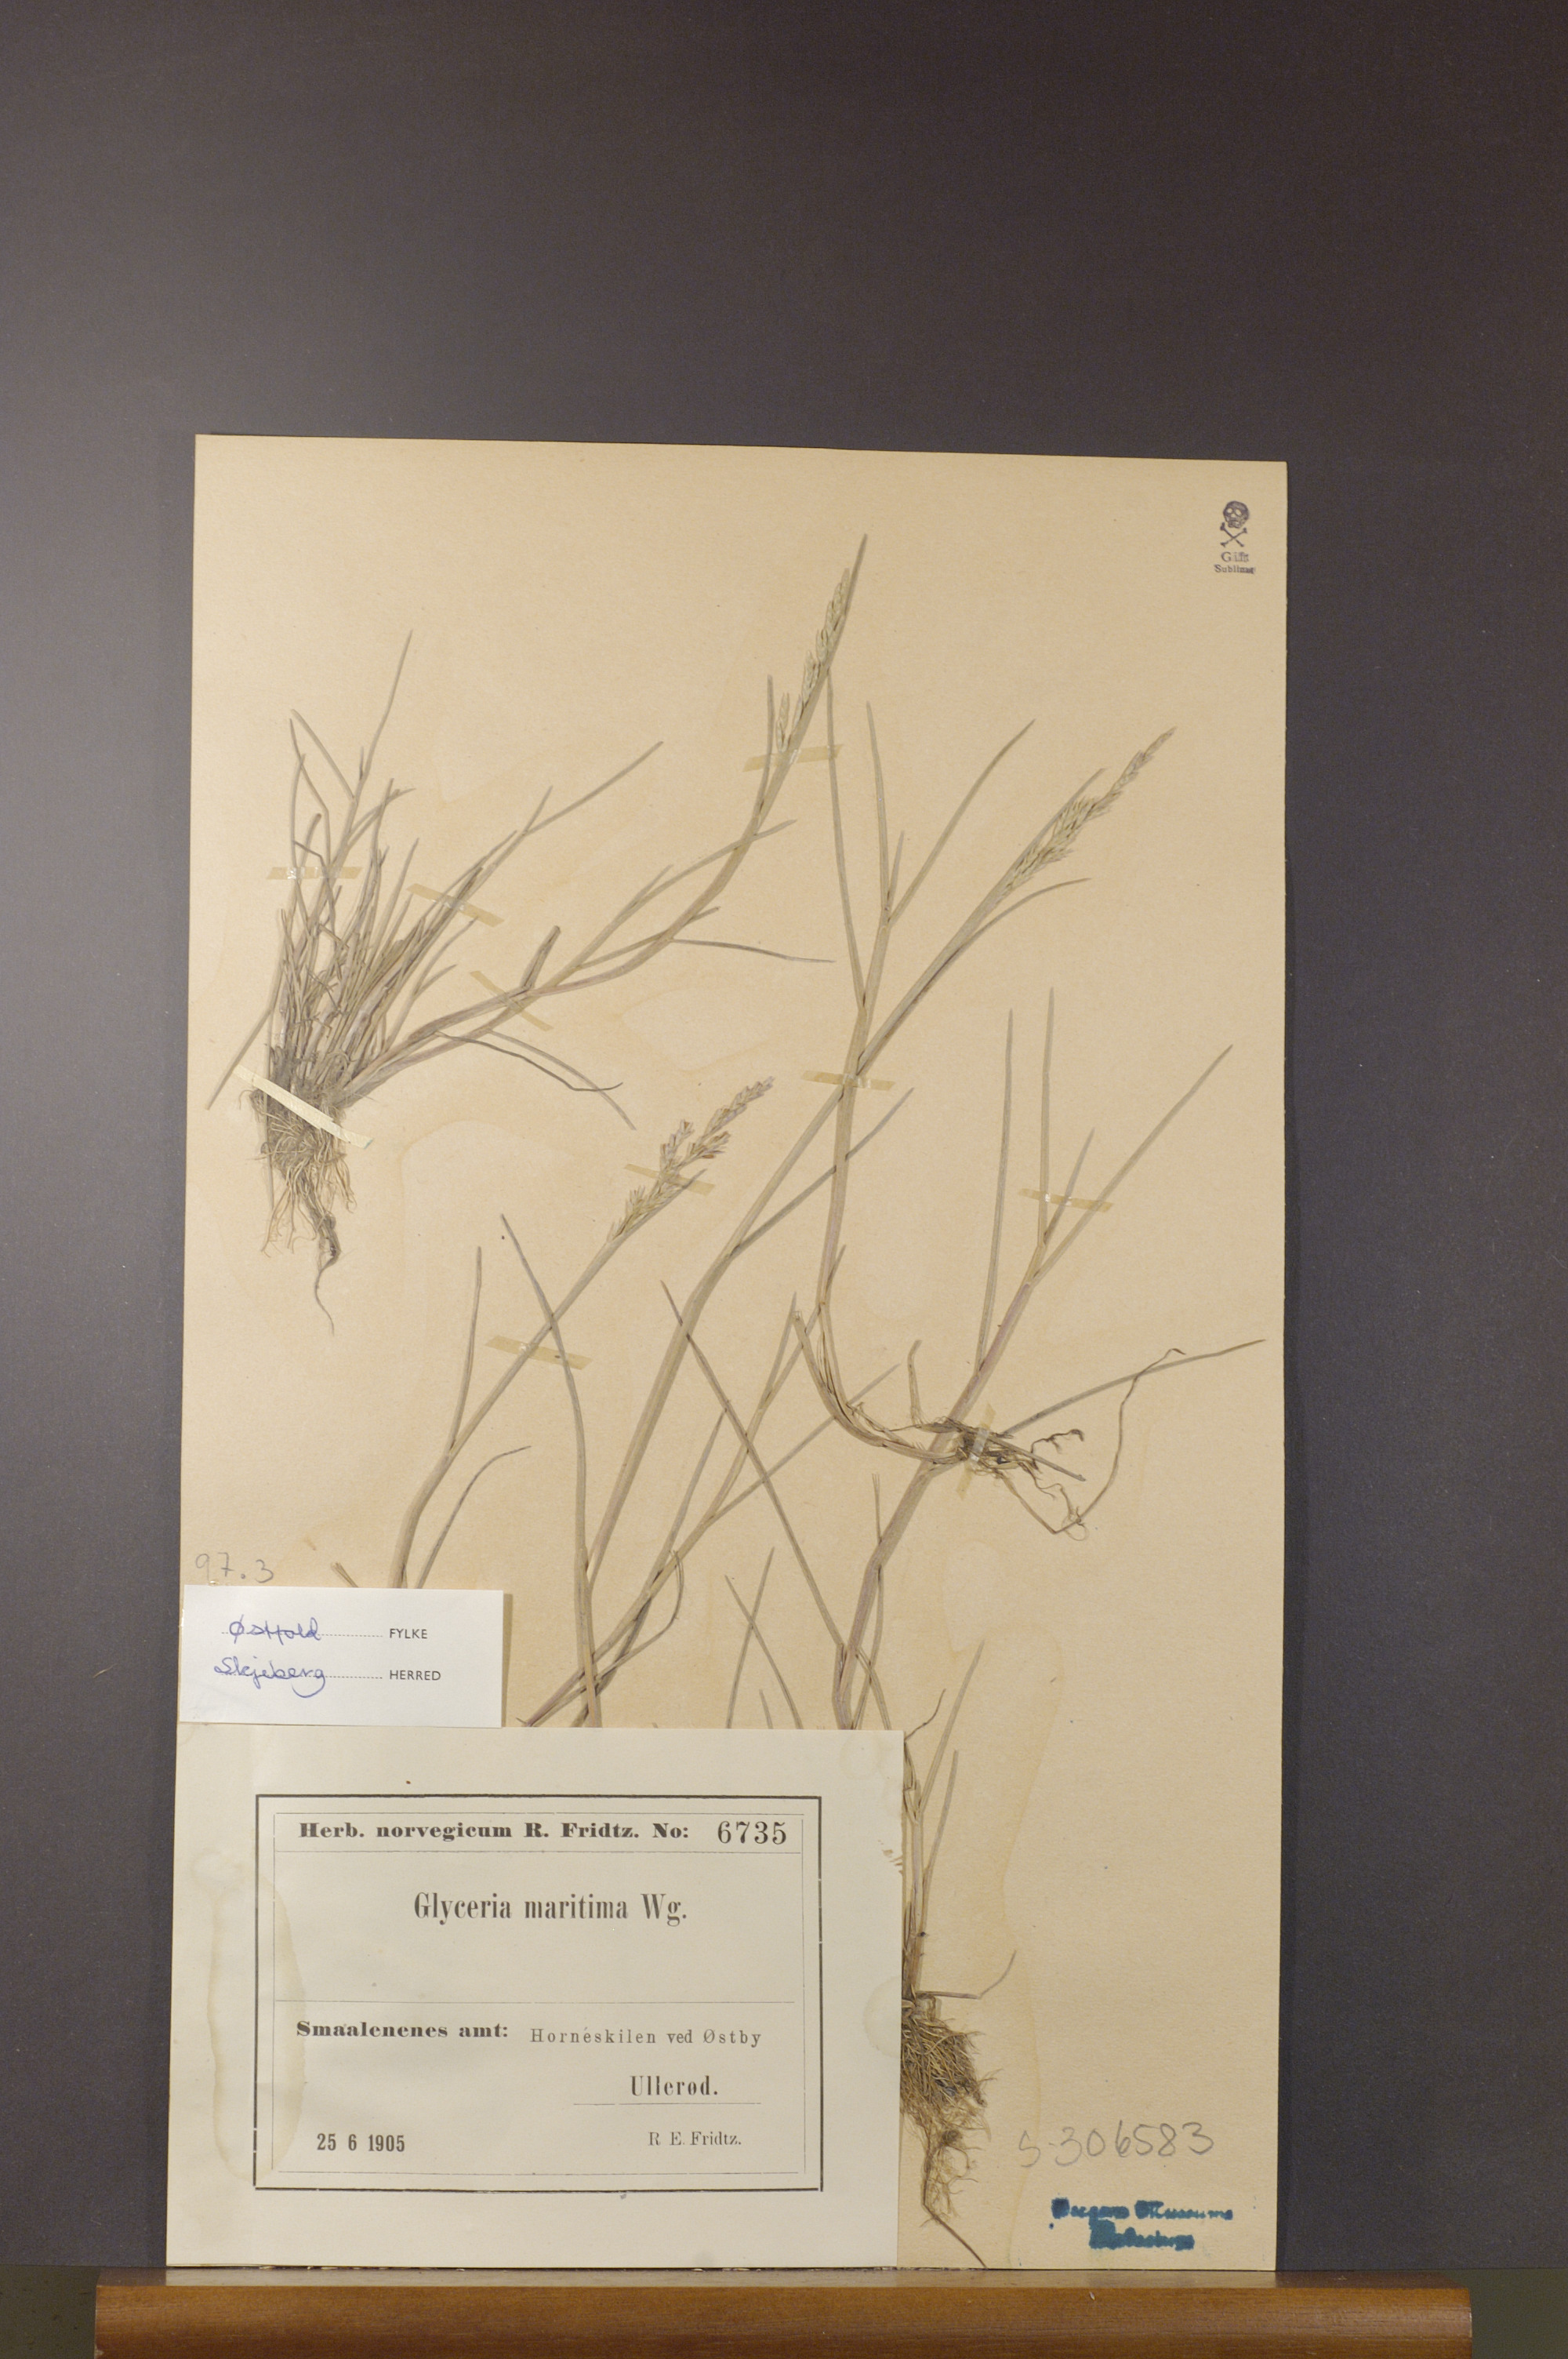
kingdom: Plantae
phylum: Tracheophyta
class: Liliopsida
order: Poales
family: Poaceae
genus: Puccinellia
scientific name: Puccinellia maritima
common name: Common saltmarsh grass
